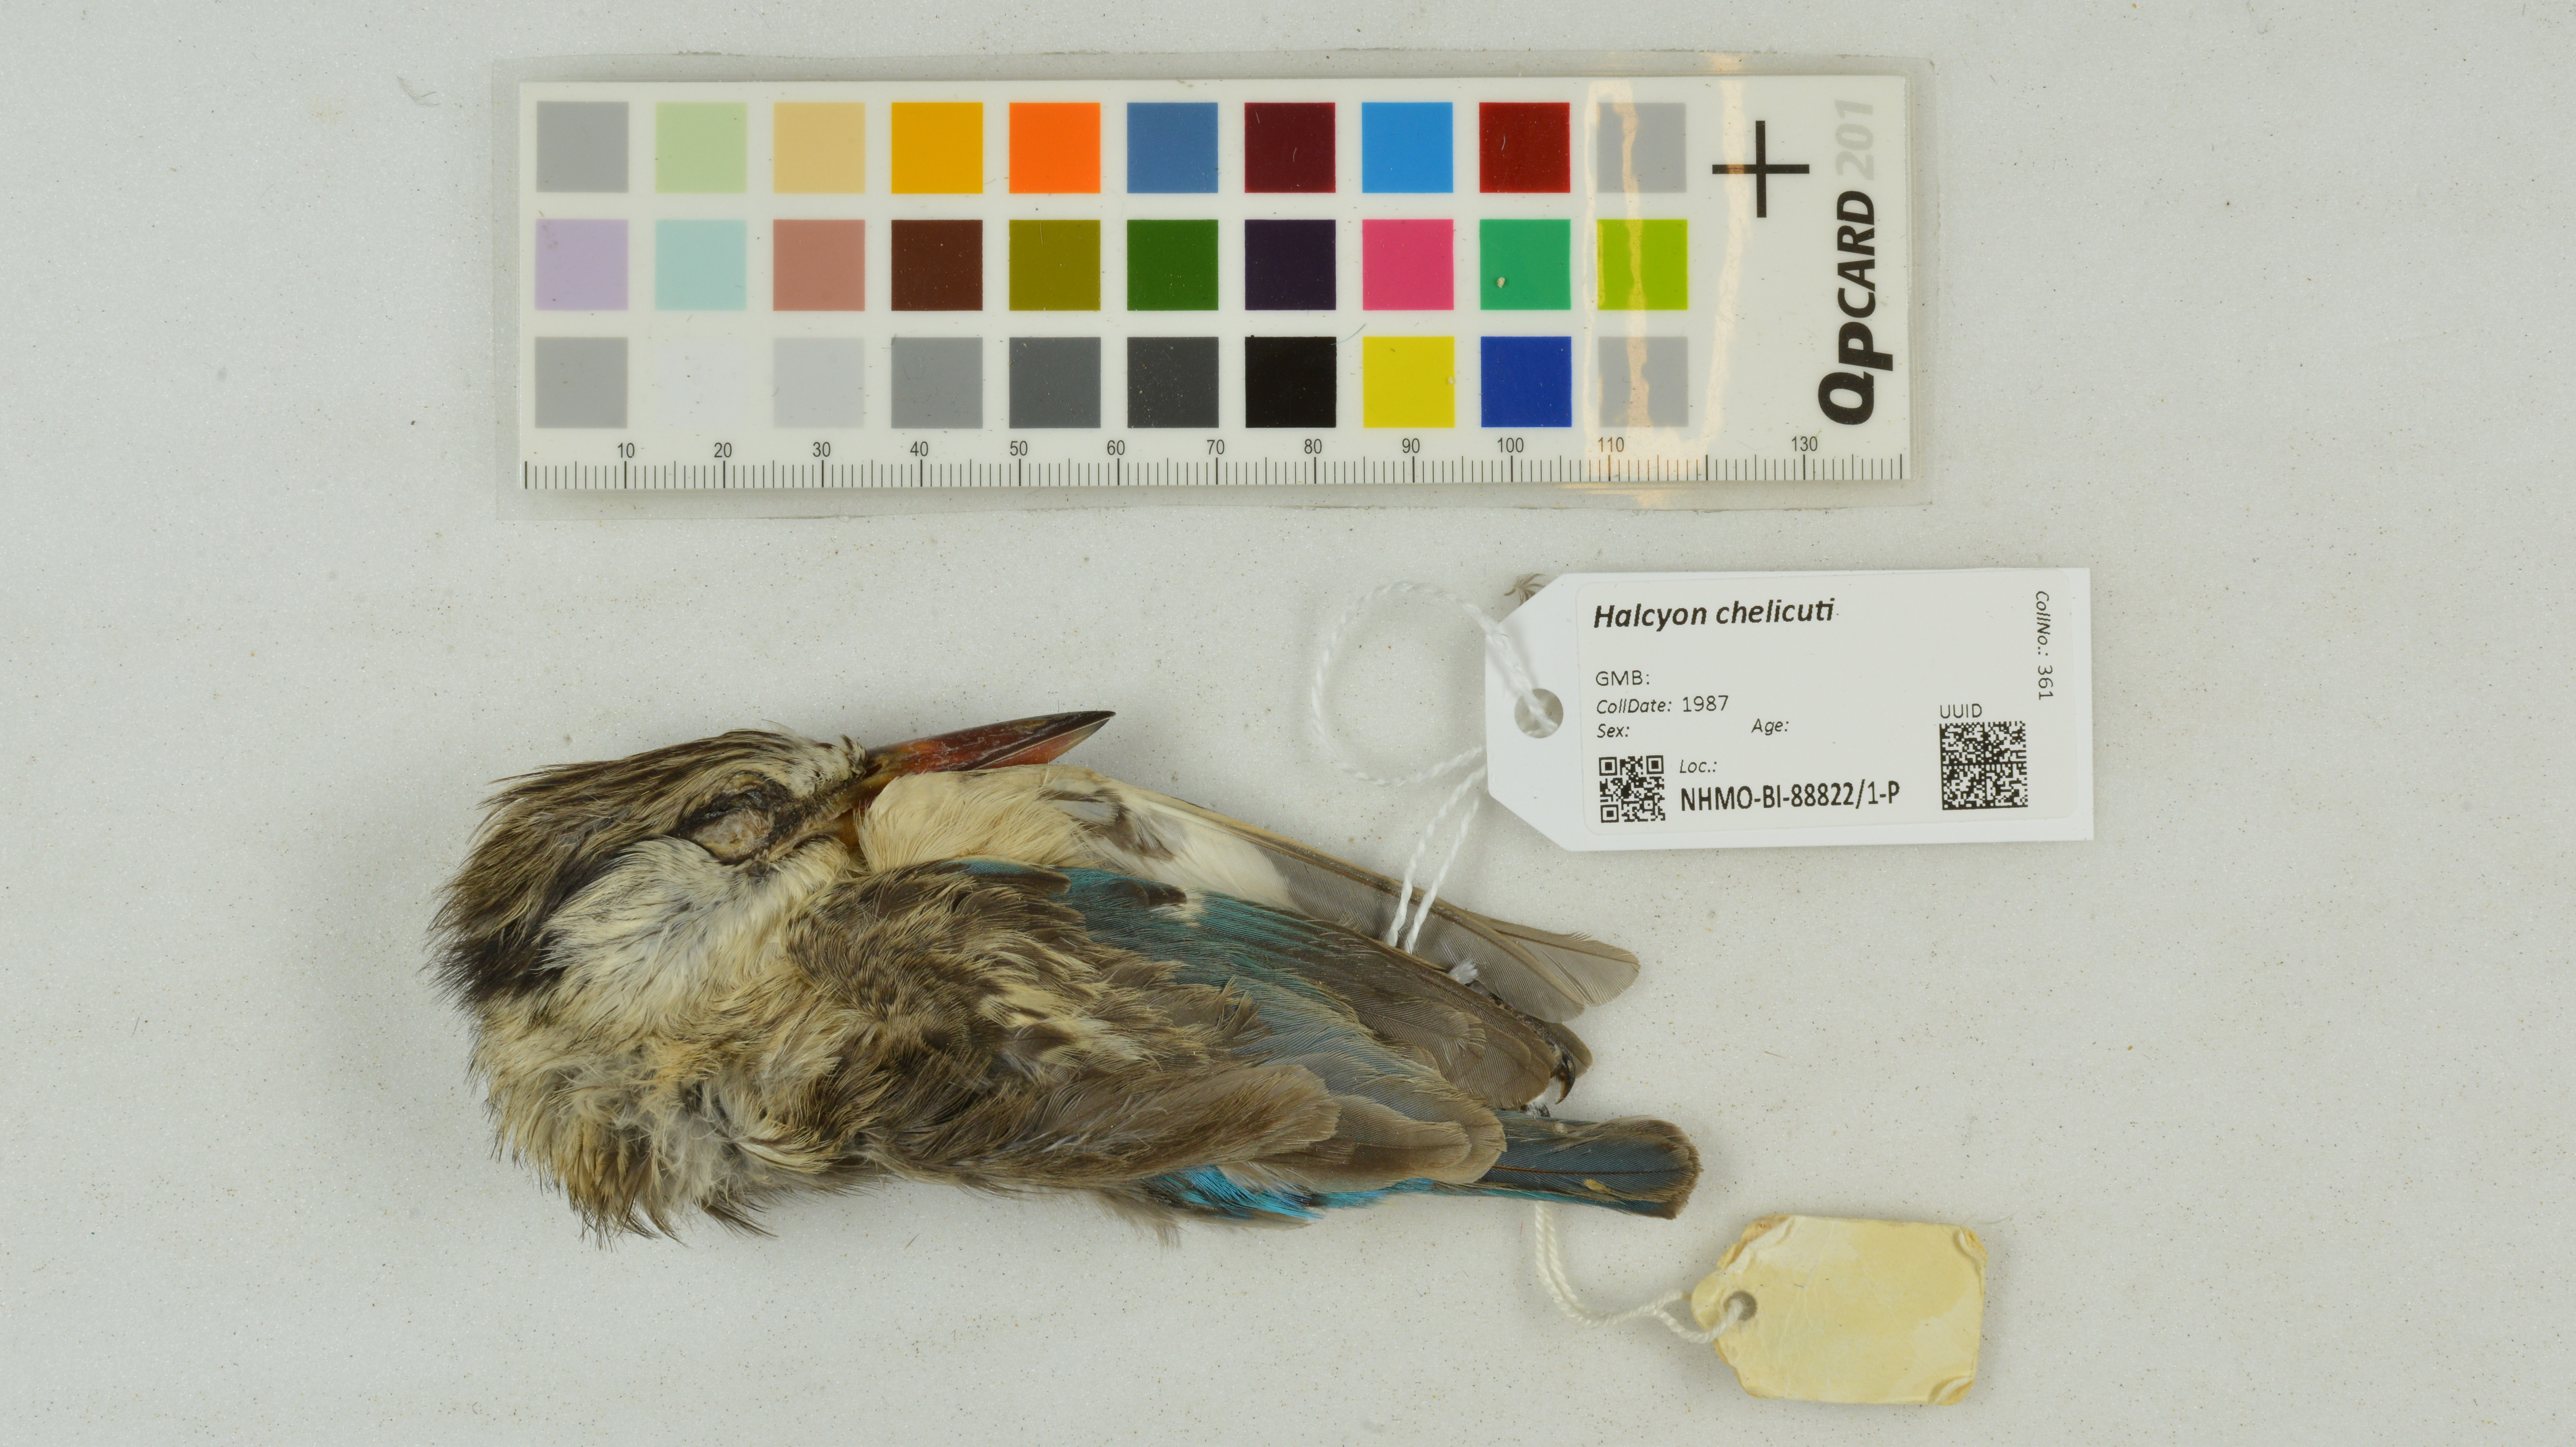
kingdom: Animalia
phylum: Chordata
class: Aves
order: Coraciiformes
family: Alcedinidae
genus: Halcyon
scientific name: Halcyon chelicuti
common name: Striped kingfisher
